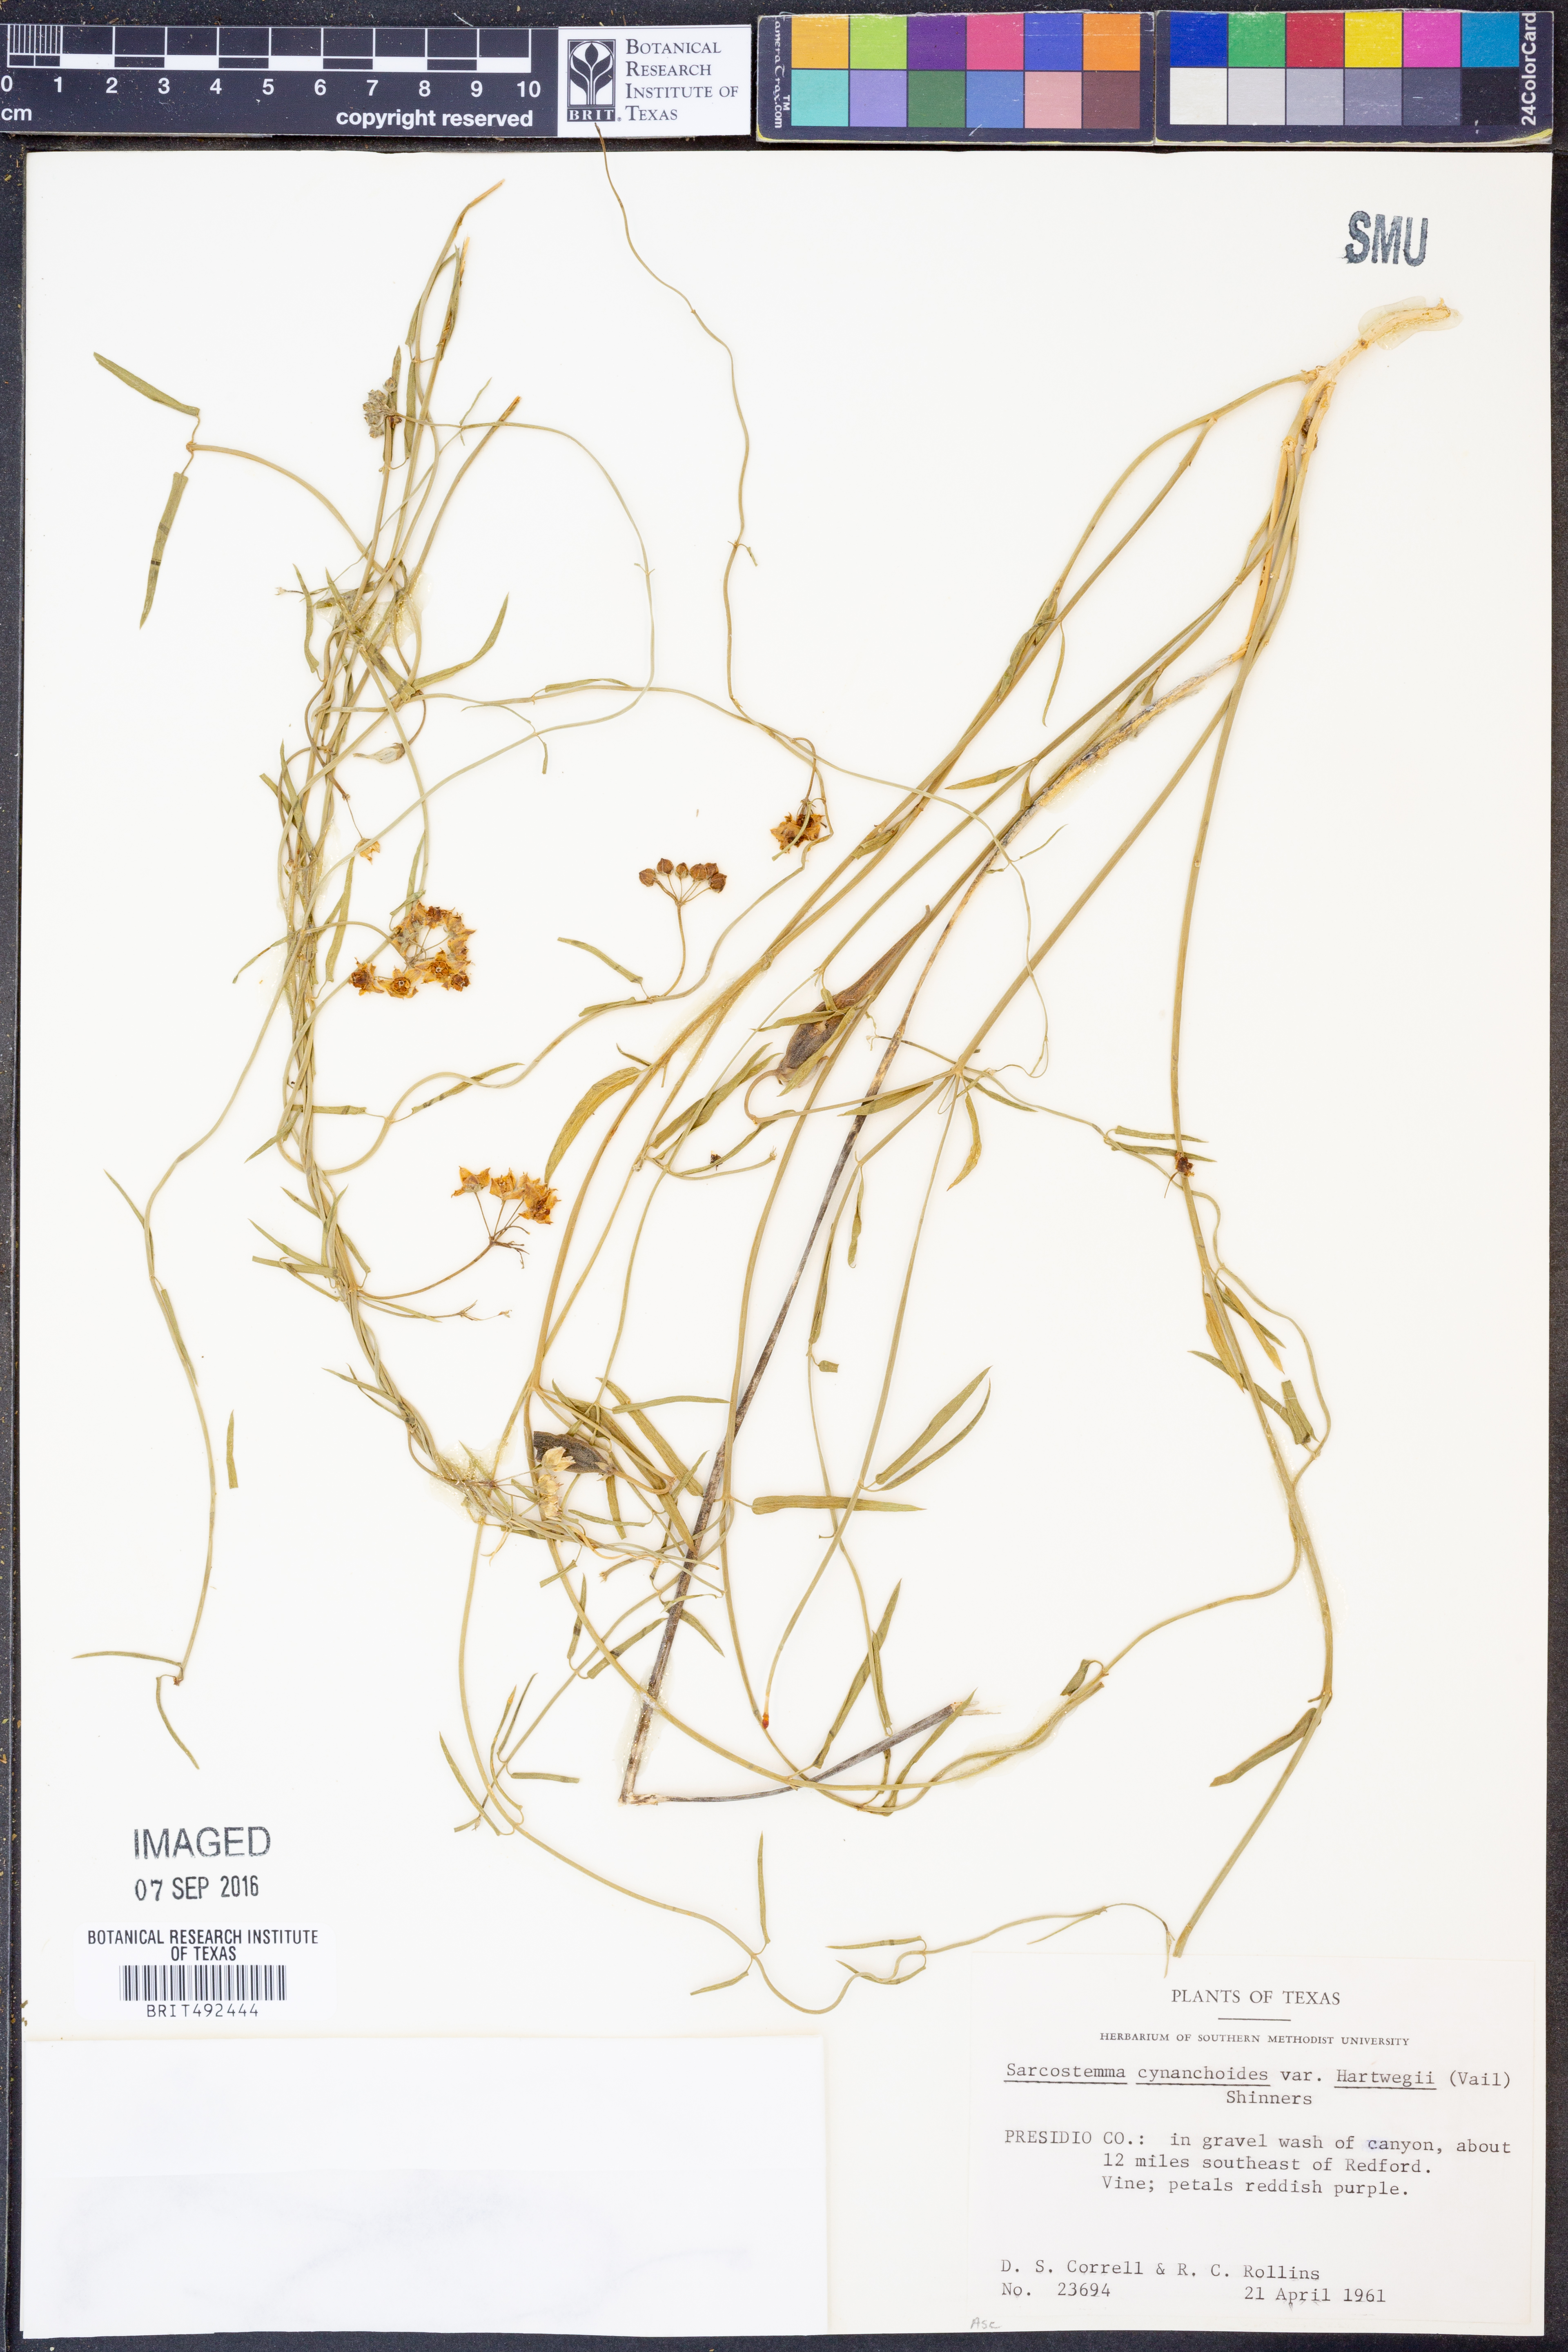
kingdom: Plantae
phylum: Tracheophyta
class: Magnoliopsida
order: Gentianales
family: Apocynaceae
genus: Funastrum
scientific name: Funastrum heterophyllum
